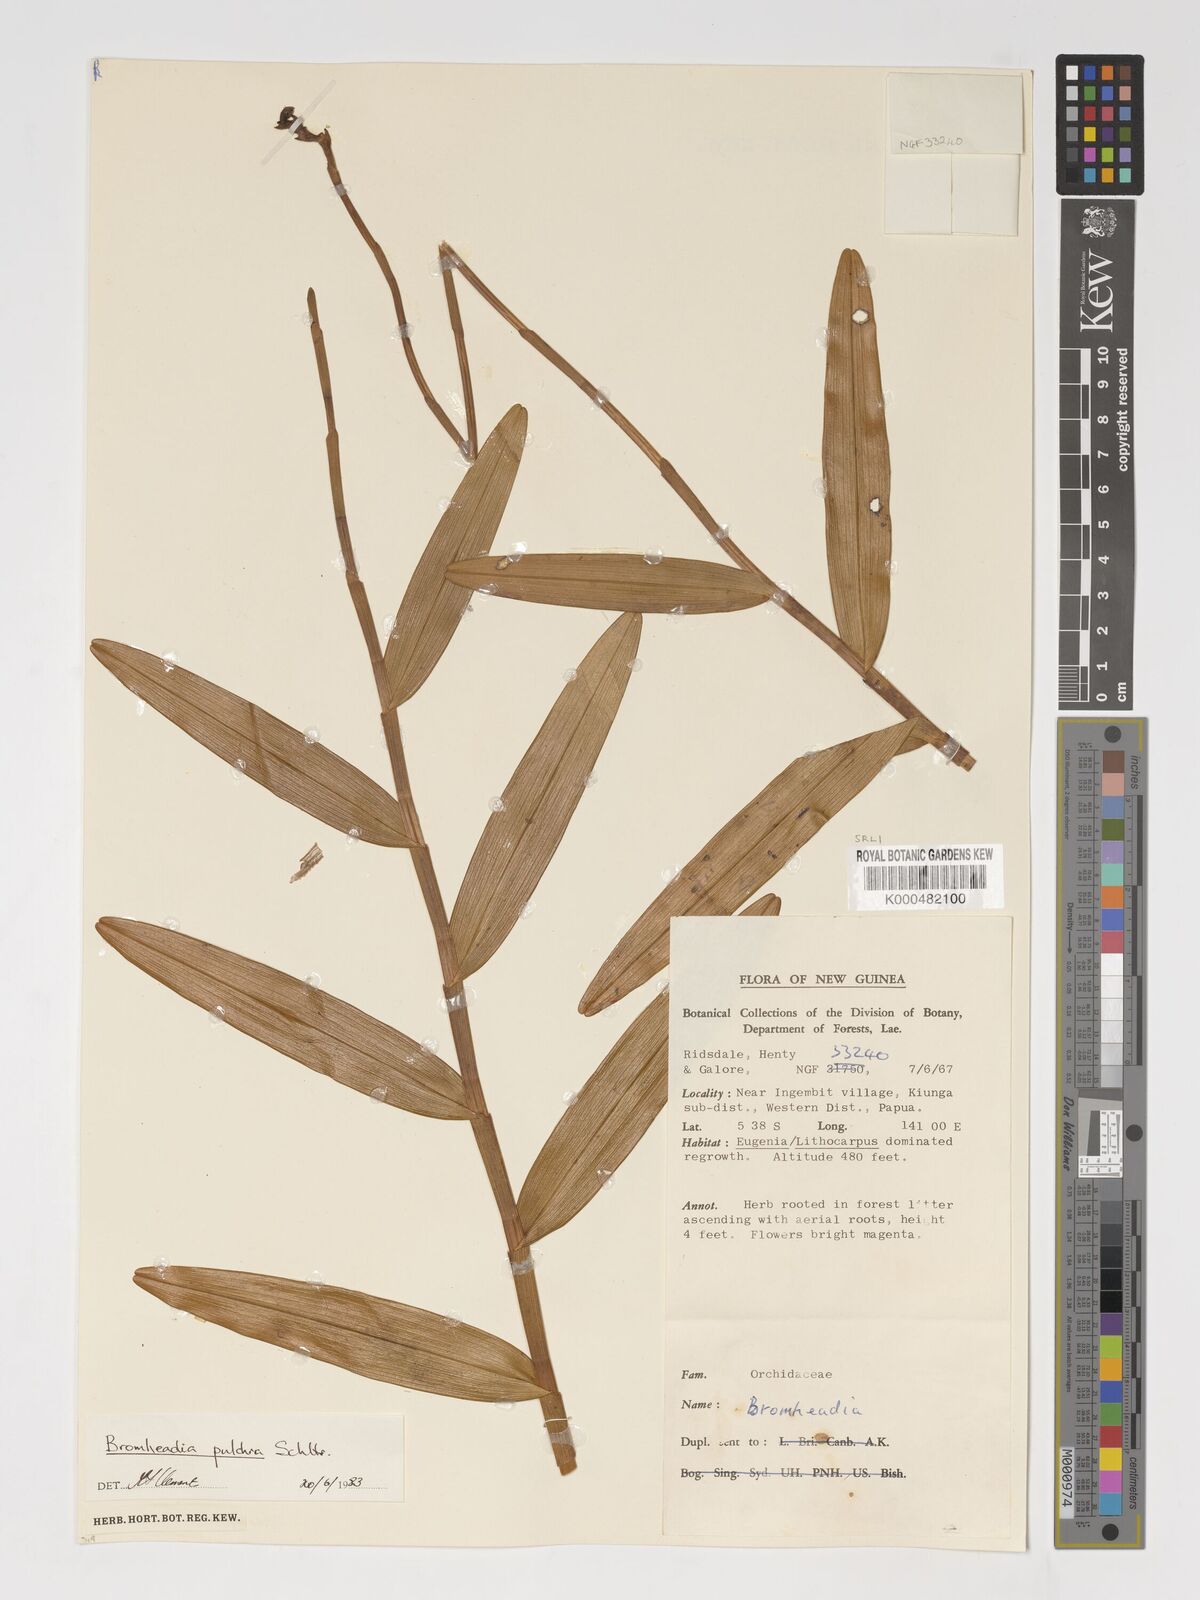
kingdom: Plantae
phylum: Tracheophyta
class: Liliopsida
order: Asparagales
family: Orchidaceae
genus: Bromheadia
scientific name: Bromheadia finlaysoniana
